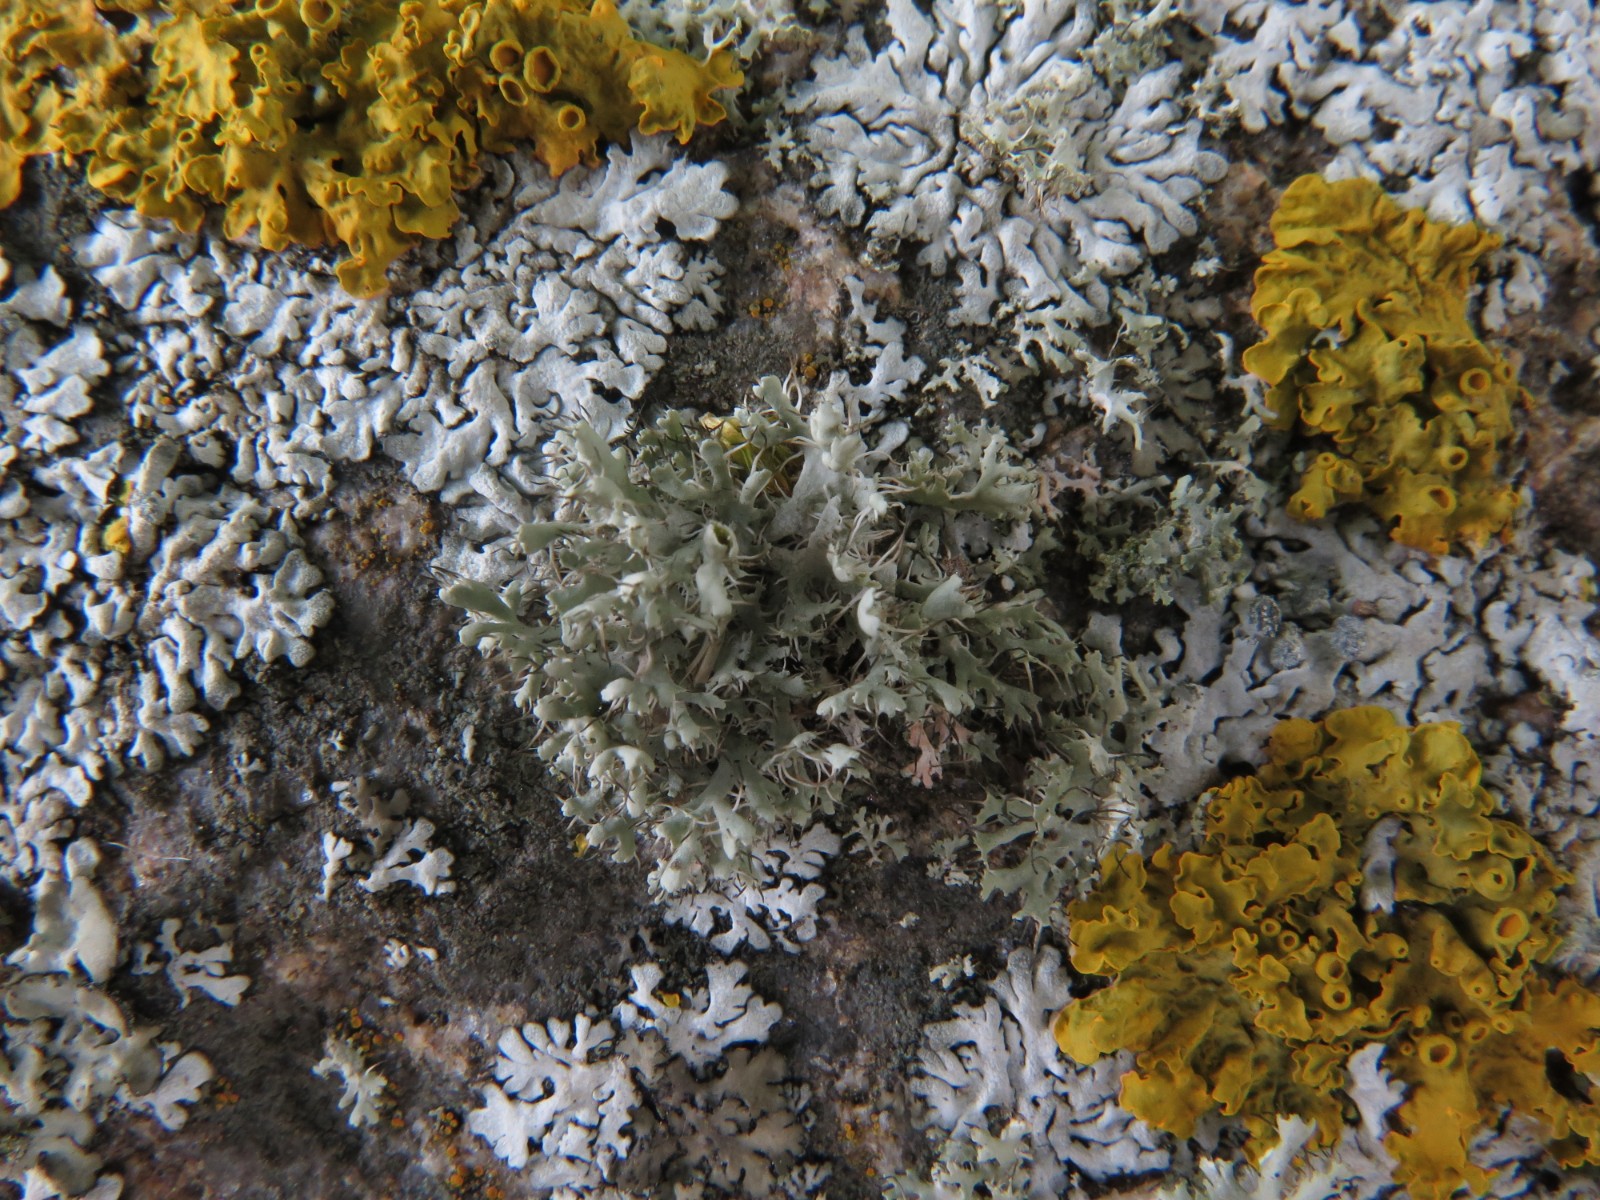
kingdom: Fungi
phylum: Ascomycota
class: Lecanoromycetes
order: Caliciales
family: Physciaceae
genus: Physcia
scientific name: Physcia adscendens
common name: hætte-rosetlav
